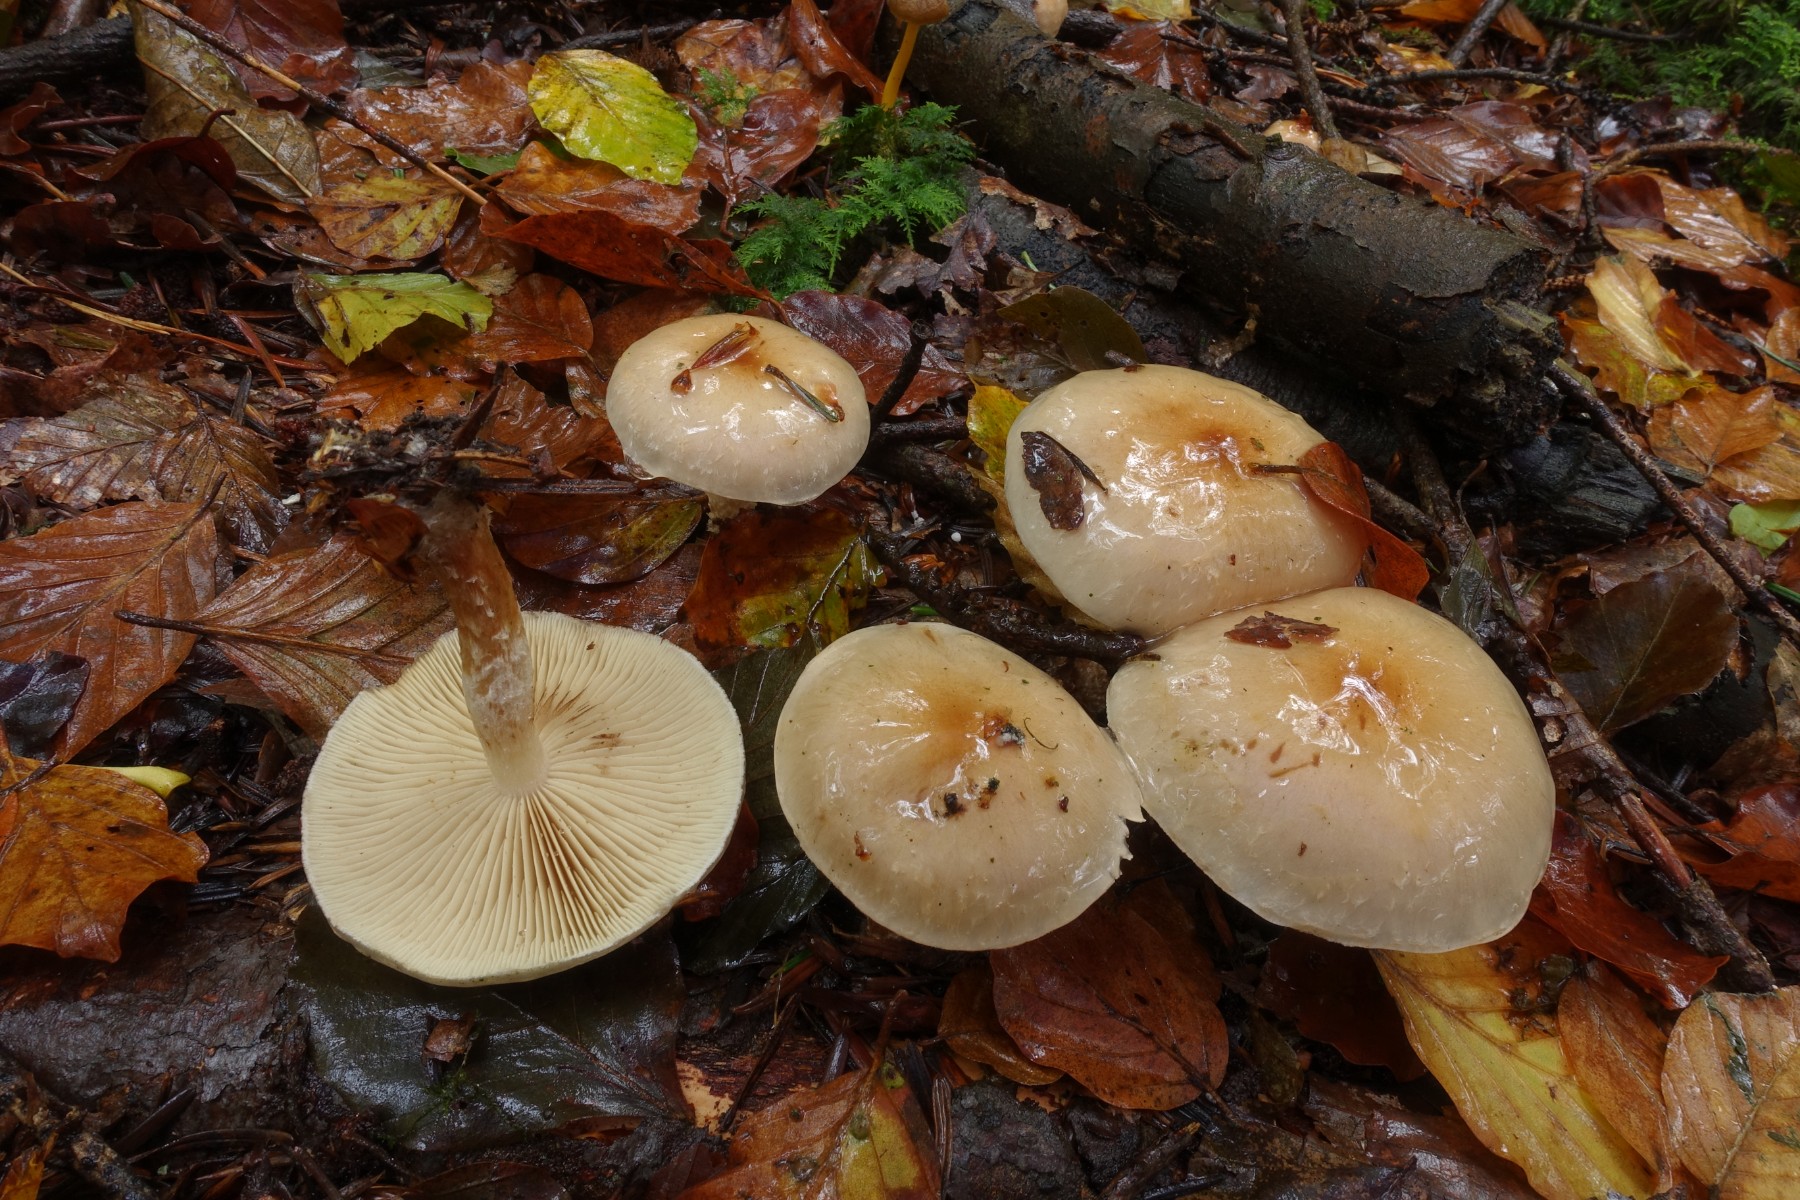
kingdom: Fungi
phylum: Basidiomycota
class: Agaricomycetes
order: Agaricales
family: Strophariaceae
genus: Pholiota
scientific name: Pholiota lenta
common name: løv-skælhat
